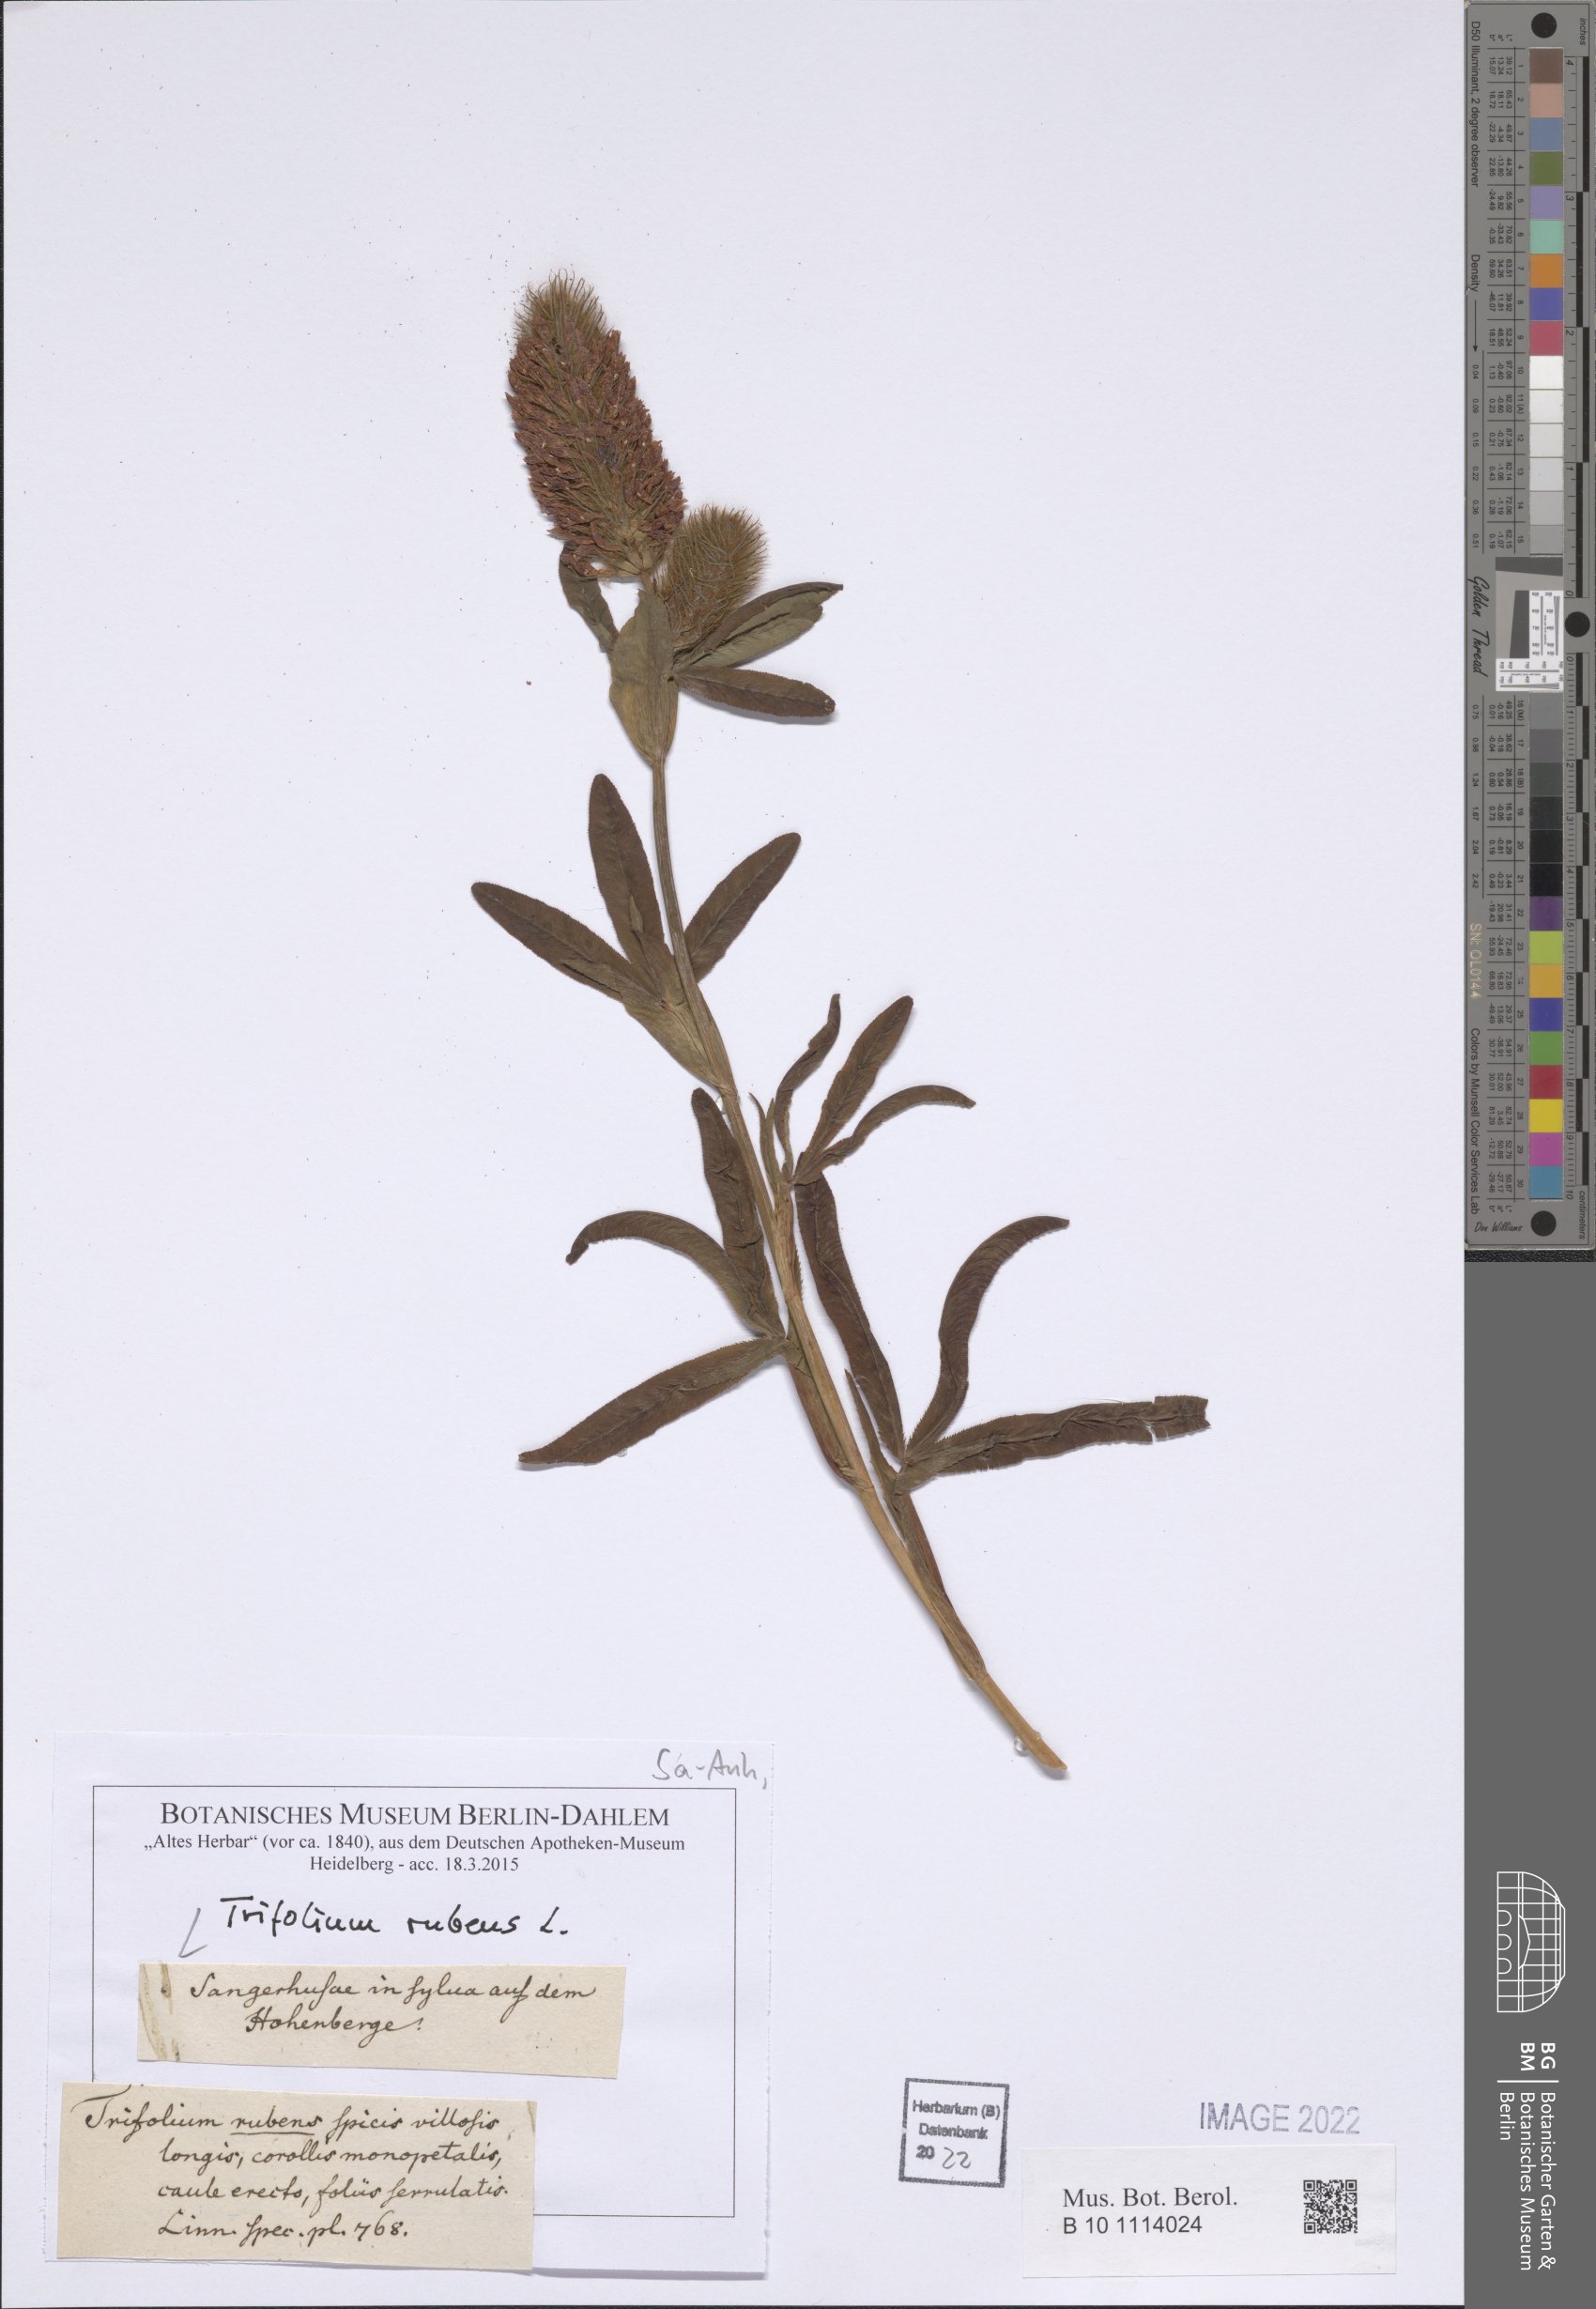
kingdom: Plantae
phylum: Tracheophyta
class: Magnoliopsida
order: Fabales
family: Fabaceae
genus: Trifolium
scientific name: Trifolium rubens
